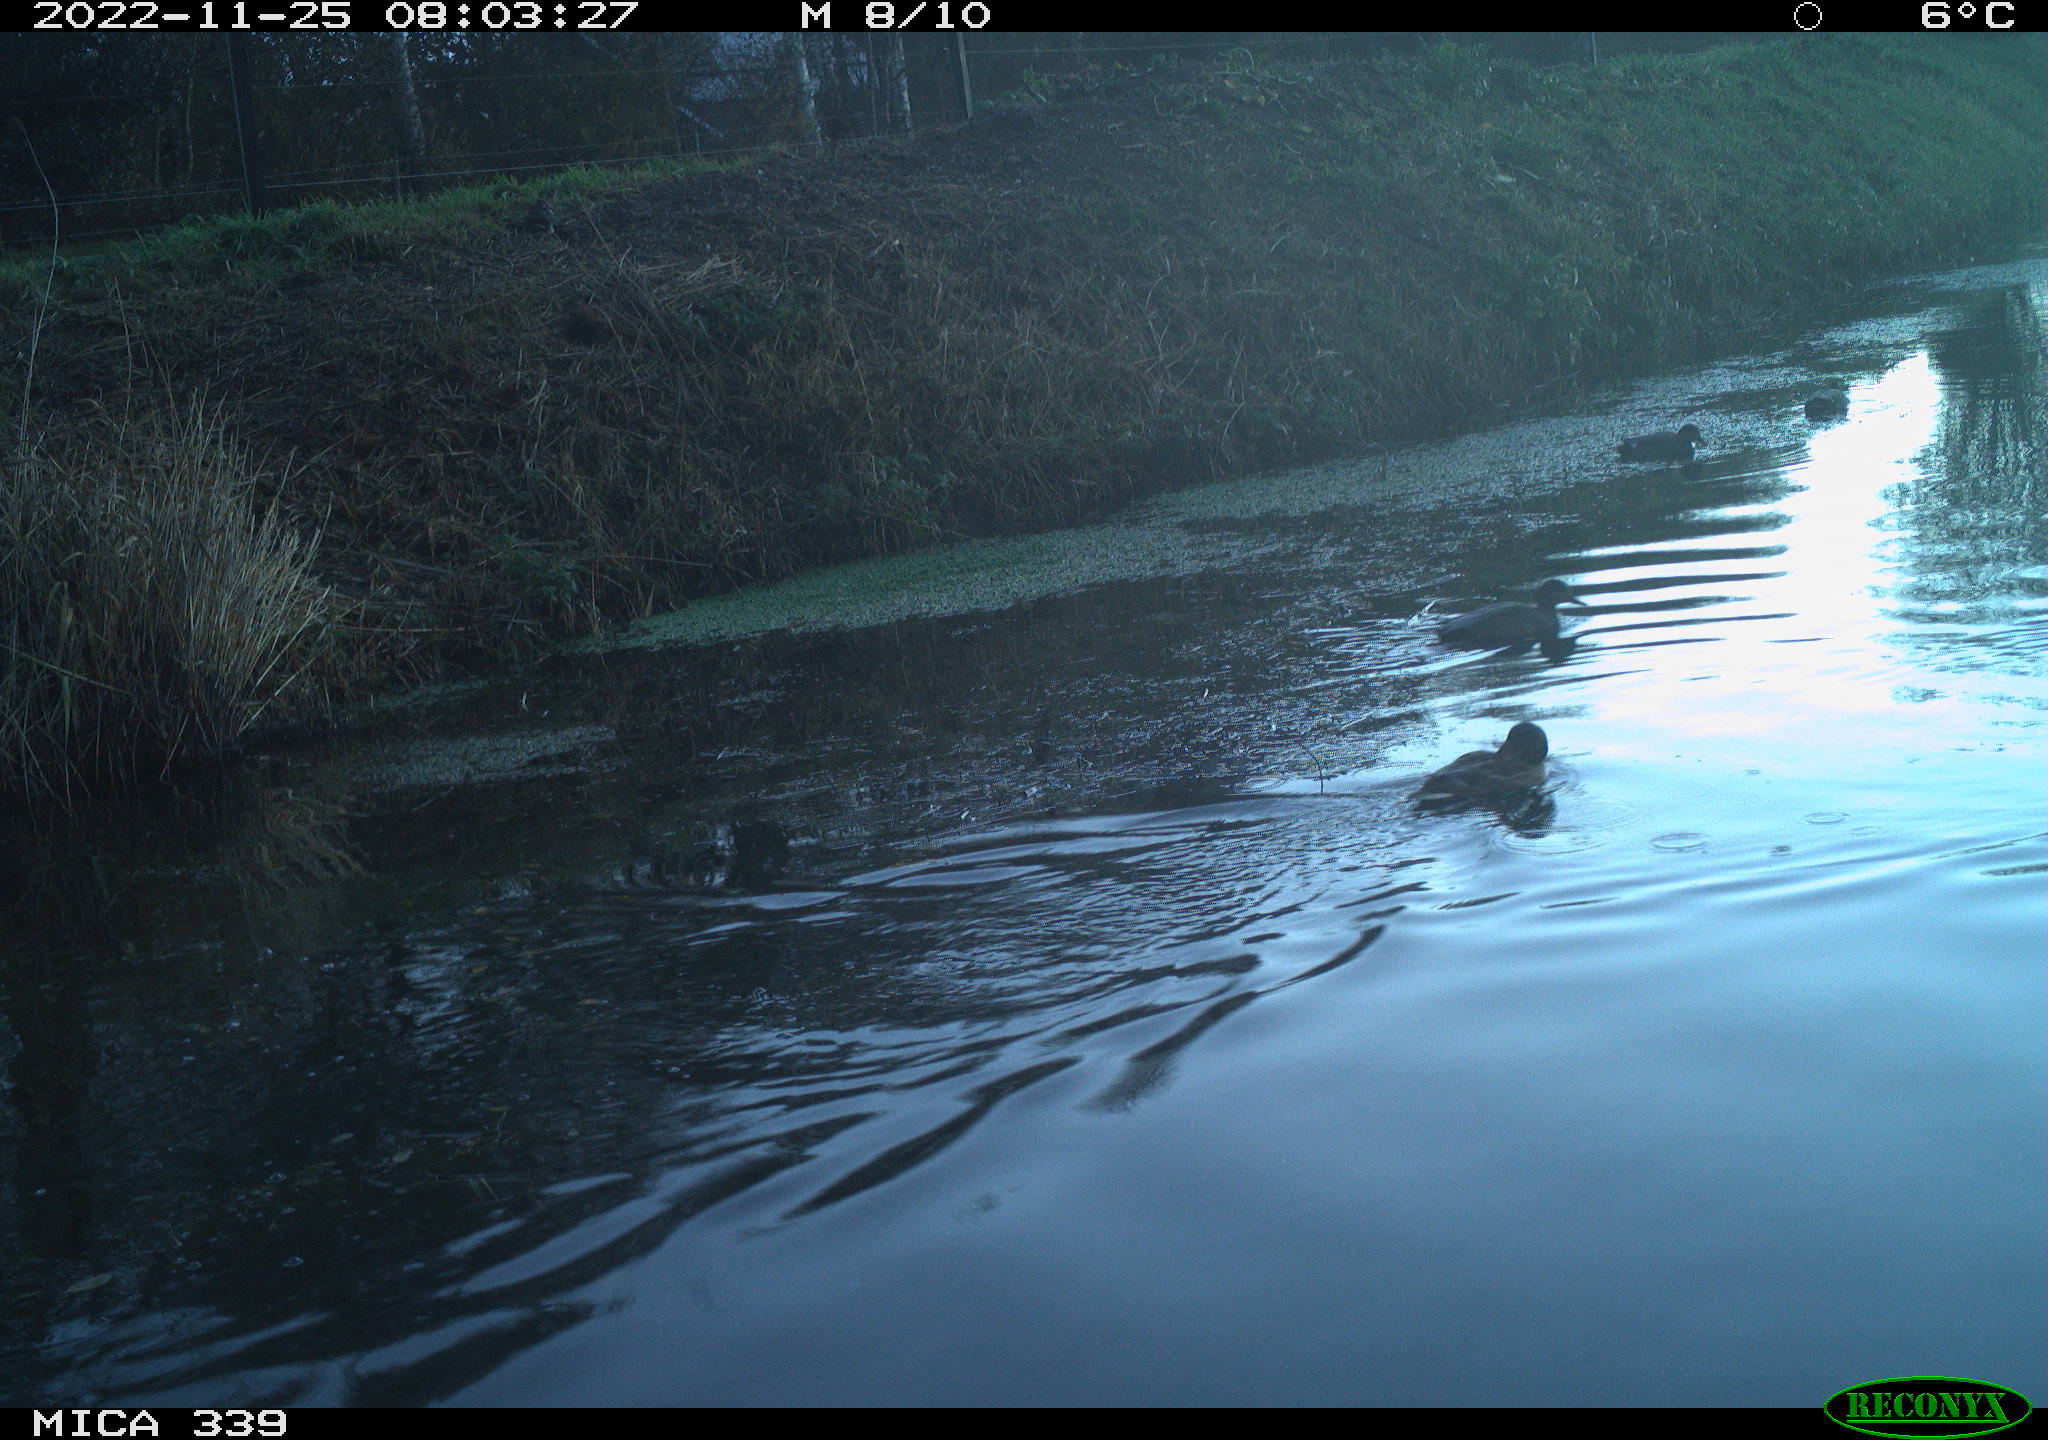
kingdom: Animalia
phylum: Chordata
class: Aves
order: Anseriformes
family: Anatidae
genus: Anas
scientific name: Anas platyrhynchos
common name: Mallard
